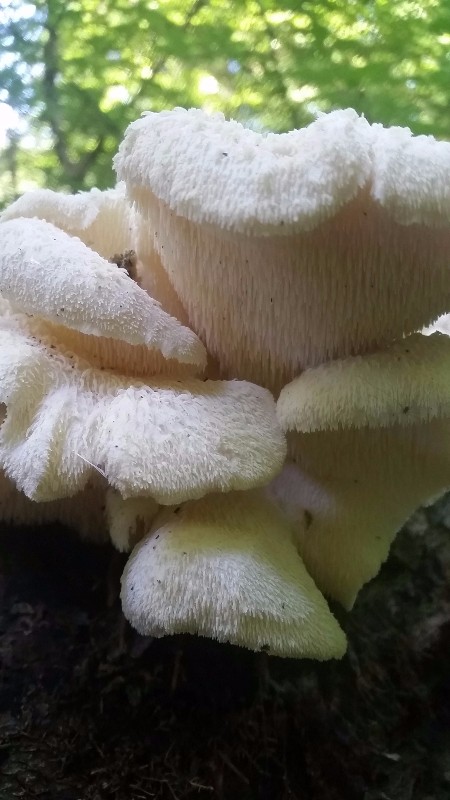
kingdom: Fungi
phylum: Basidiomycota
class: Agaricomycetes
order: Russulales
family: Hericiaceae
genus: Hericium
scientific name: Hericium cirrhatum
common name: børstepigsvamp
